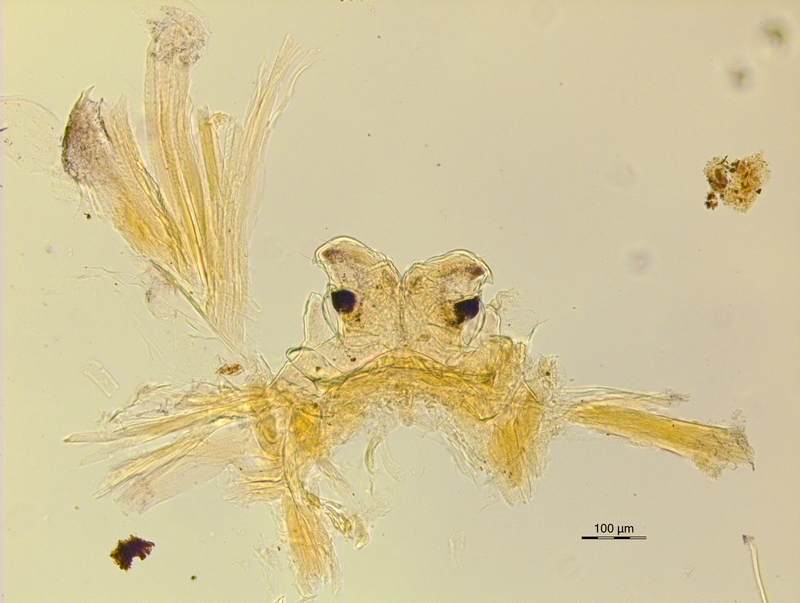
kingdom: Animalia
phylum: Arthropoda
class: Diplopoda
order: Chordeumatida
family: Craspedosomatidae
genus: Ochogona
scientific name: Ochogona caroli
